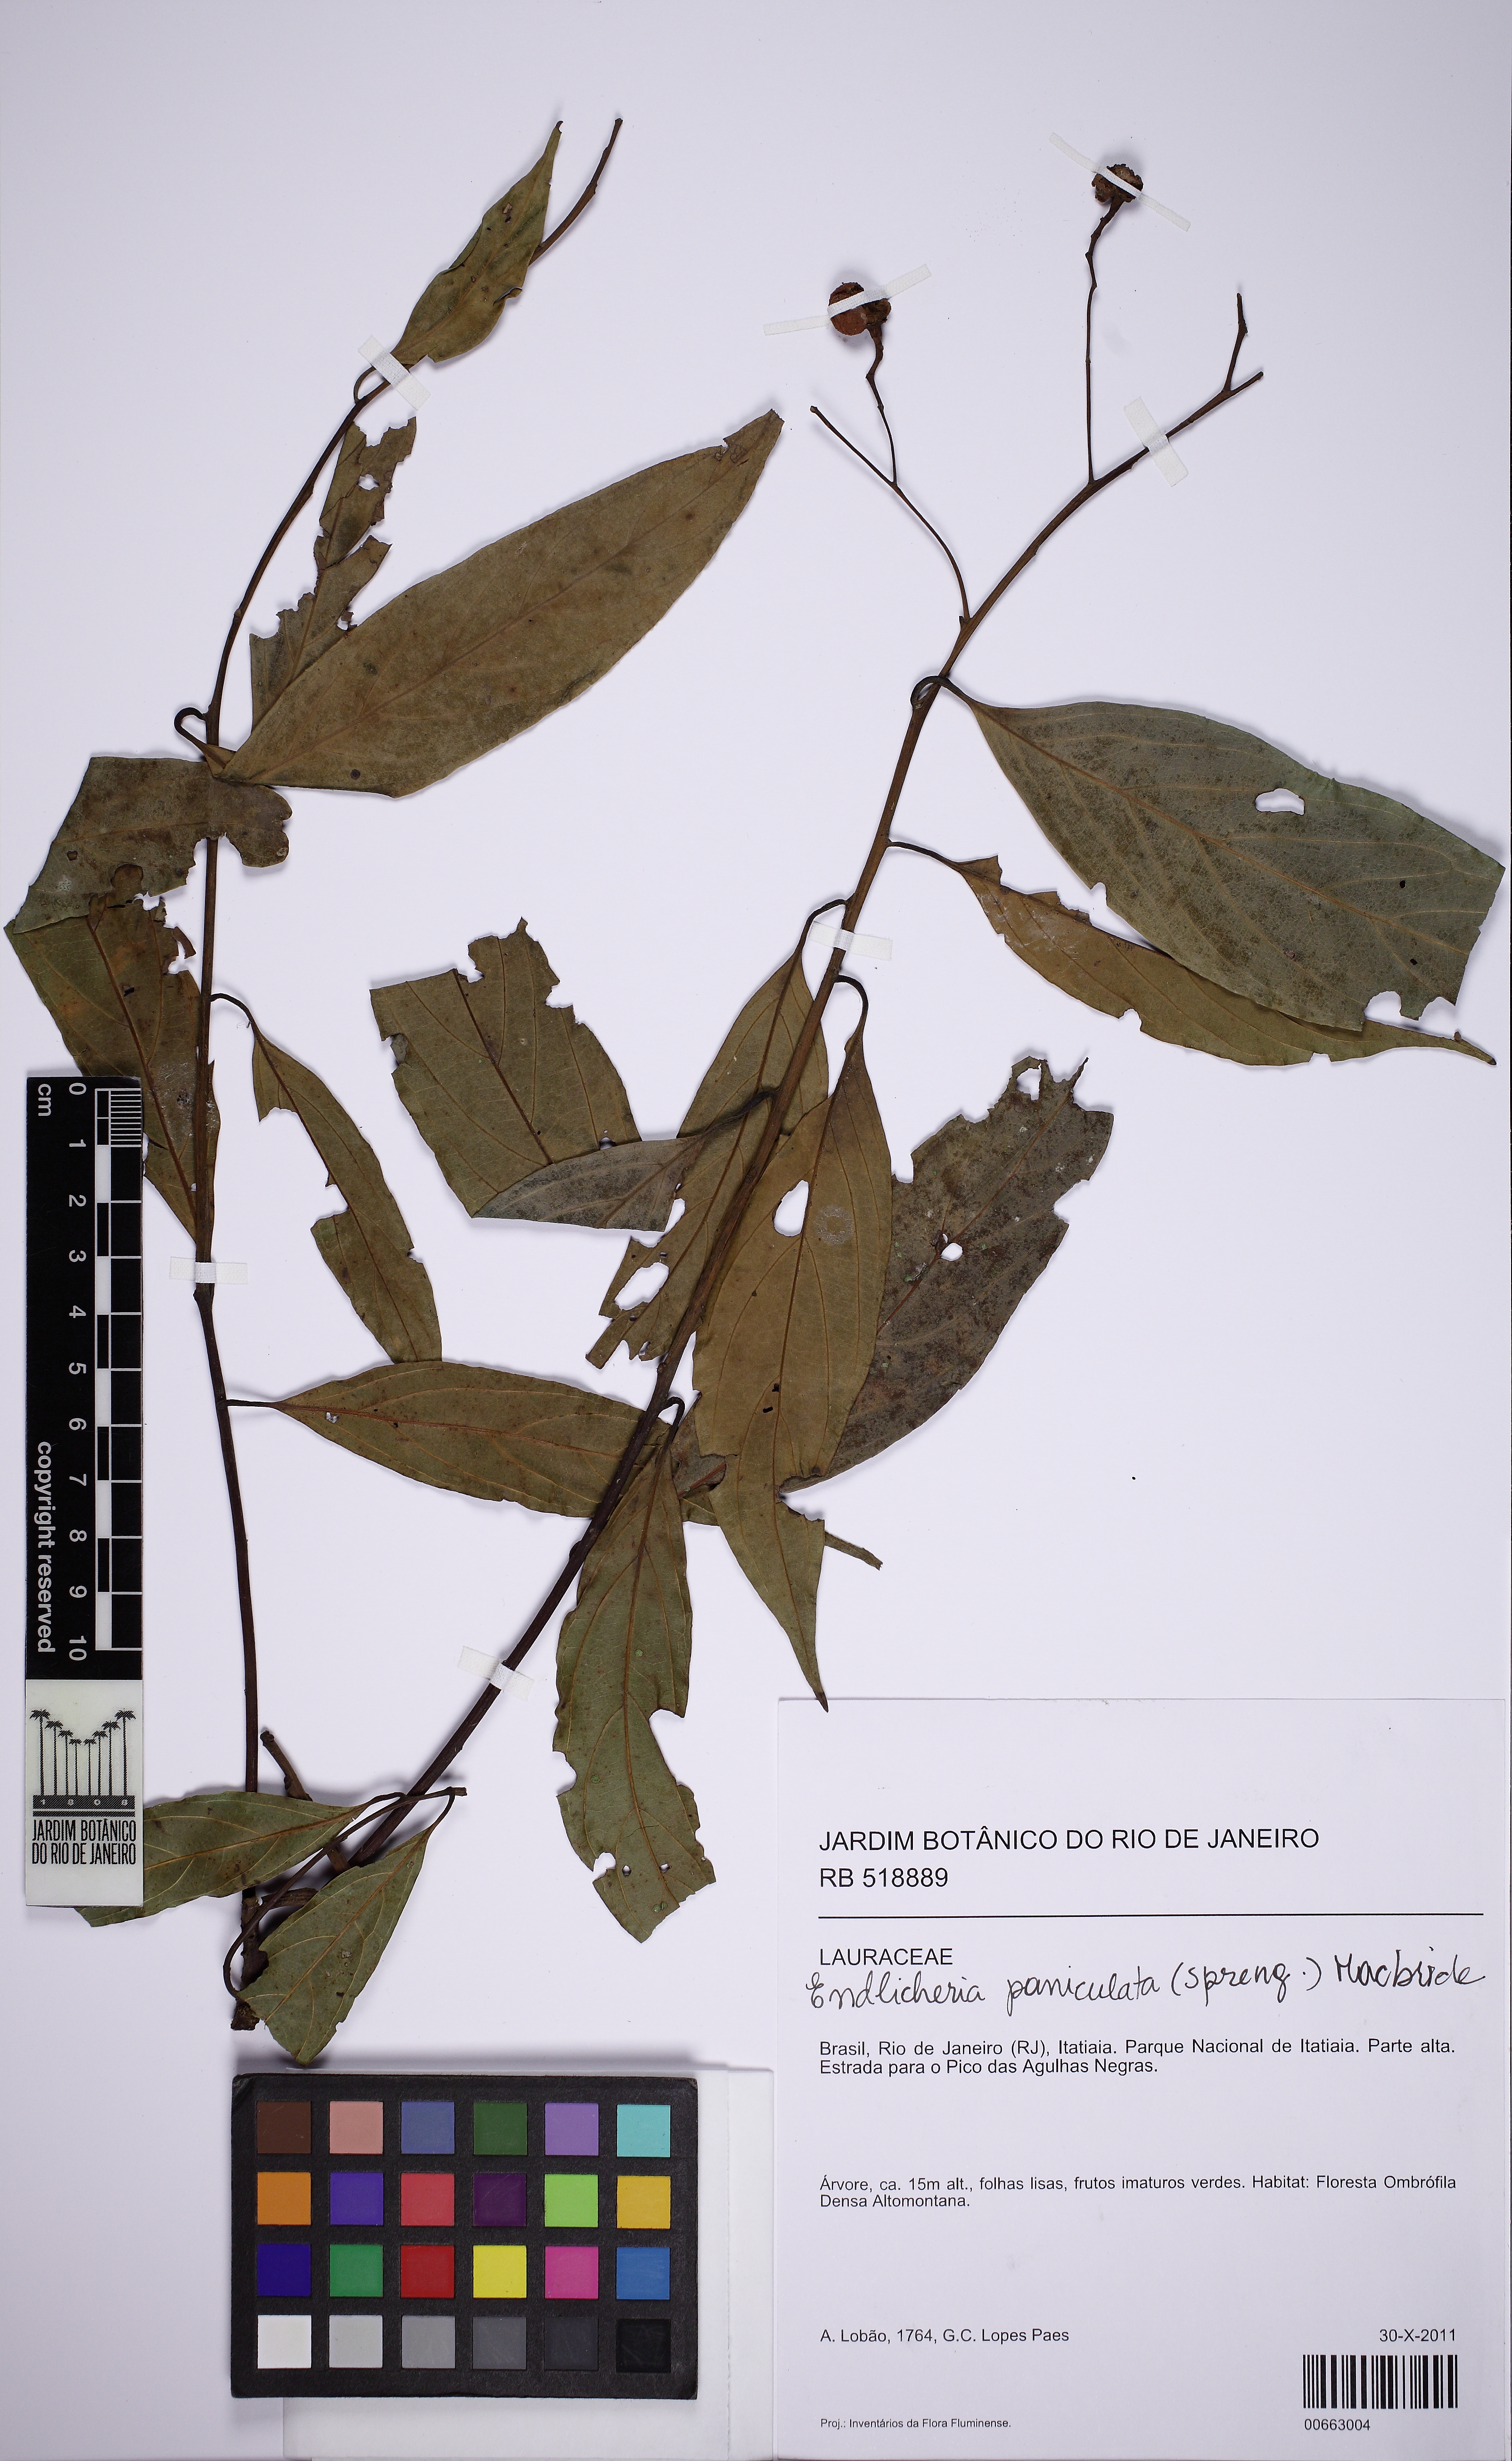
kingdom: Plantae
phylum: Tracheophyta
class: Magnoliopsida
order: Laurales
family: Lauraceae
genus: Endlicheria
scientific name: Endlicheria paniculata
